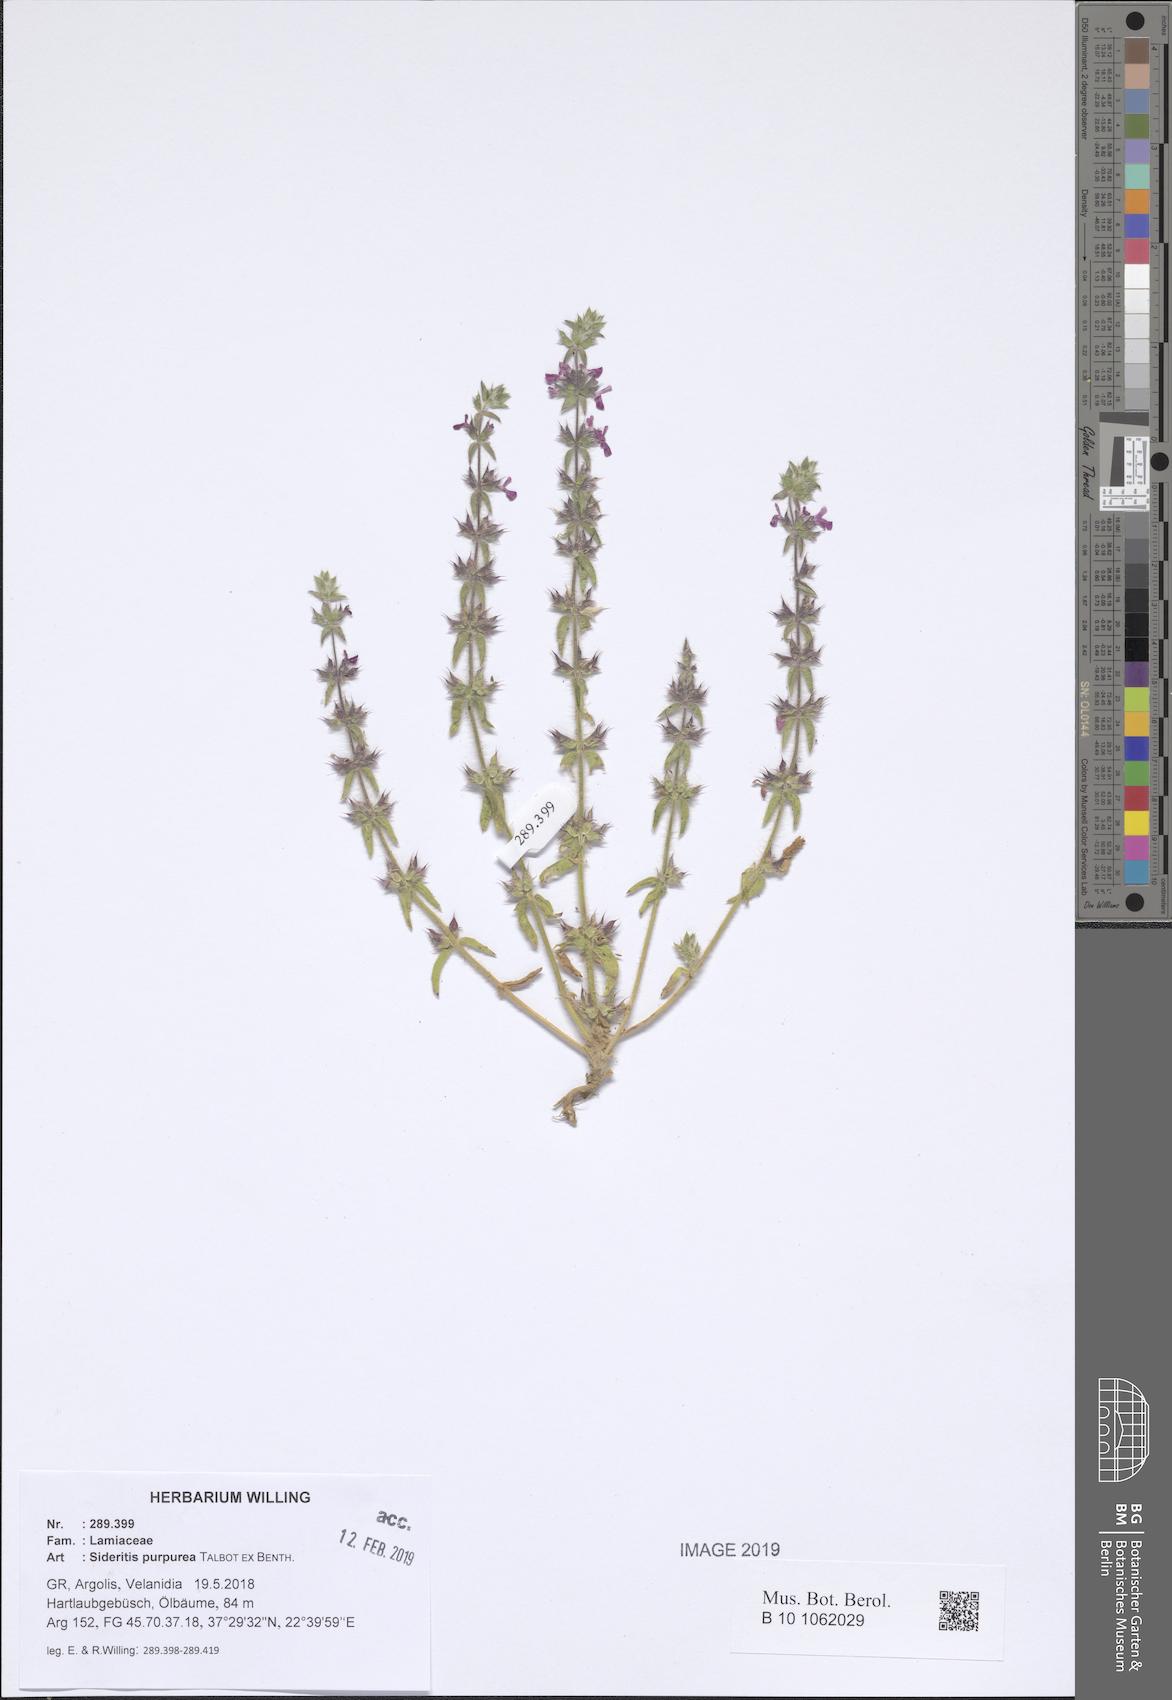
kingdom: Plantae
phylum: Tracheophyta
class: Magnoliopsida
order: Lamiales
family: Lamiaceae
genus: Sideritis
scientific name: Sideritis romana
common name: Simplebeak ironwort
